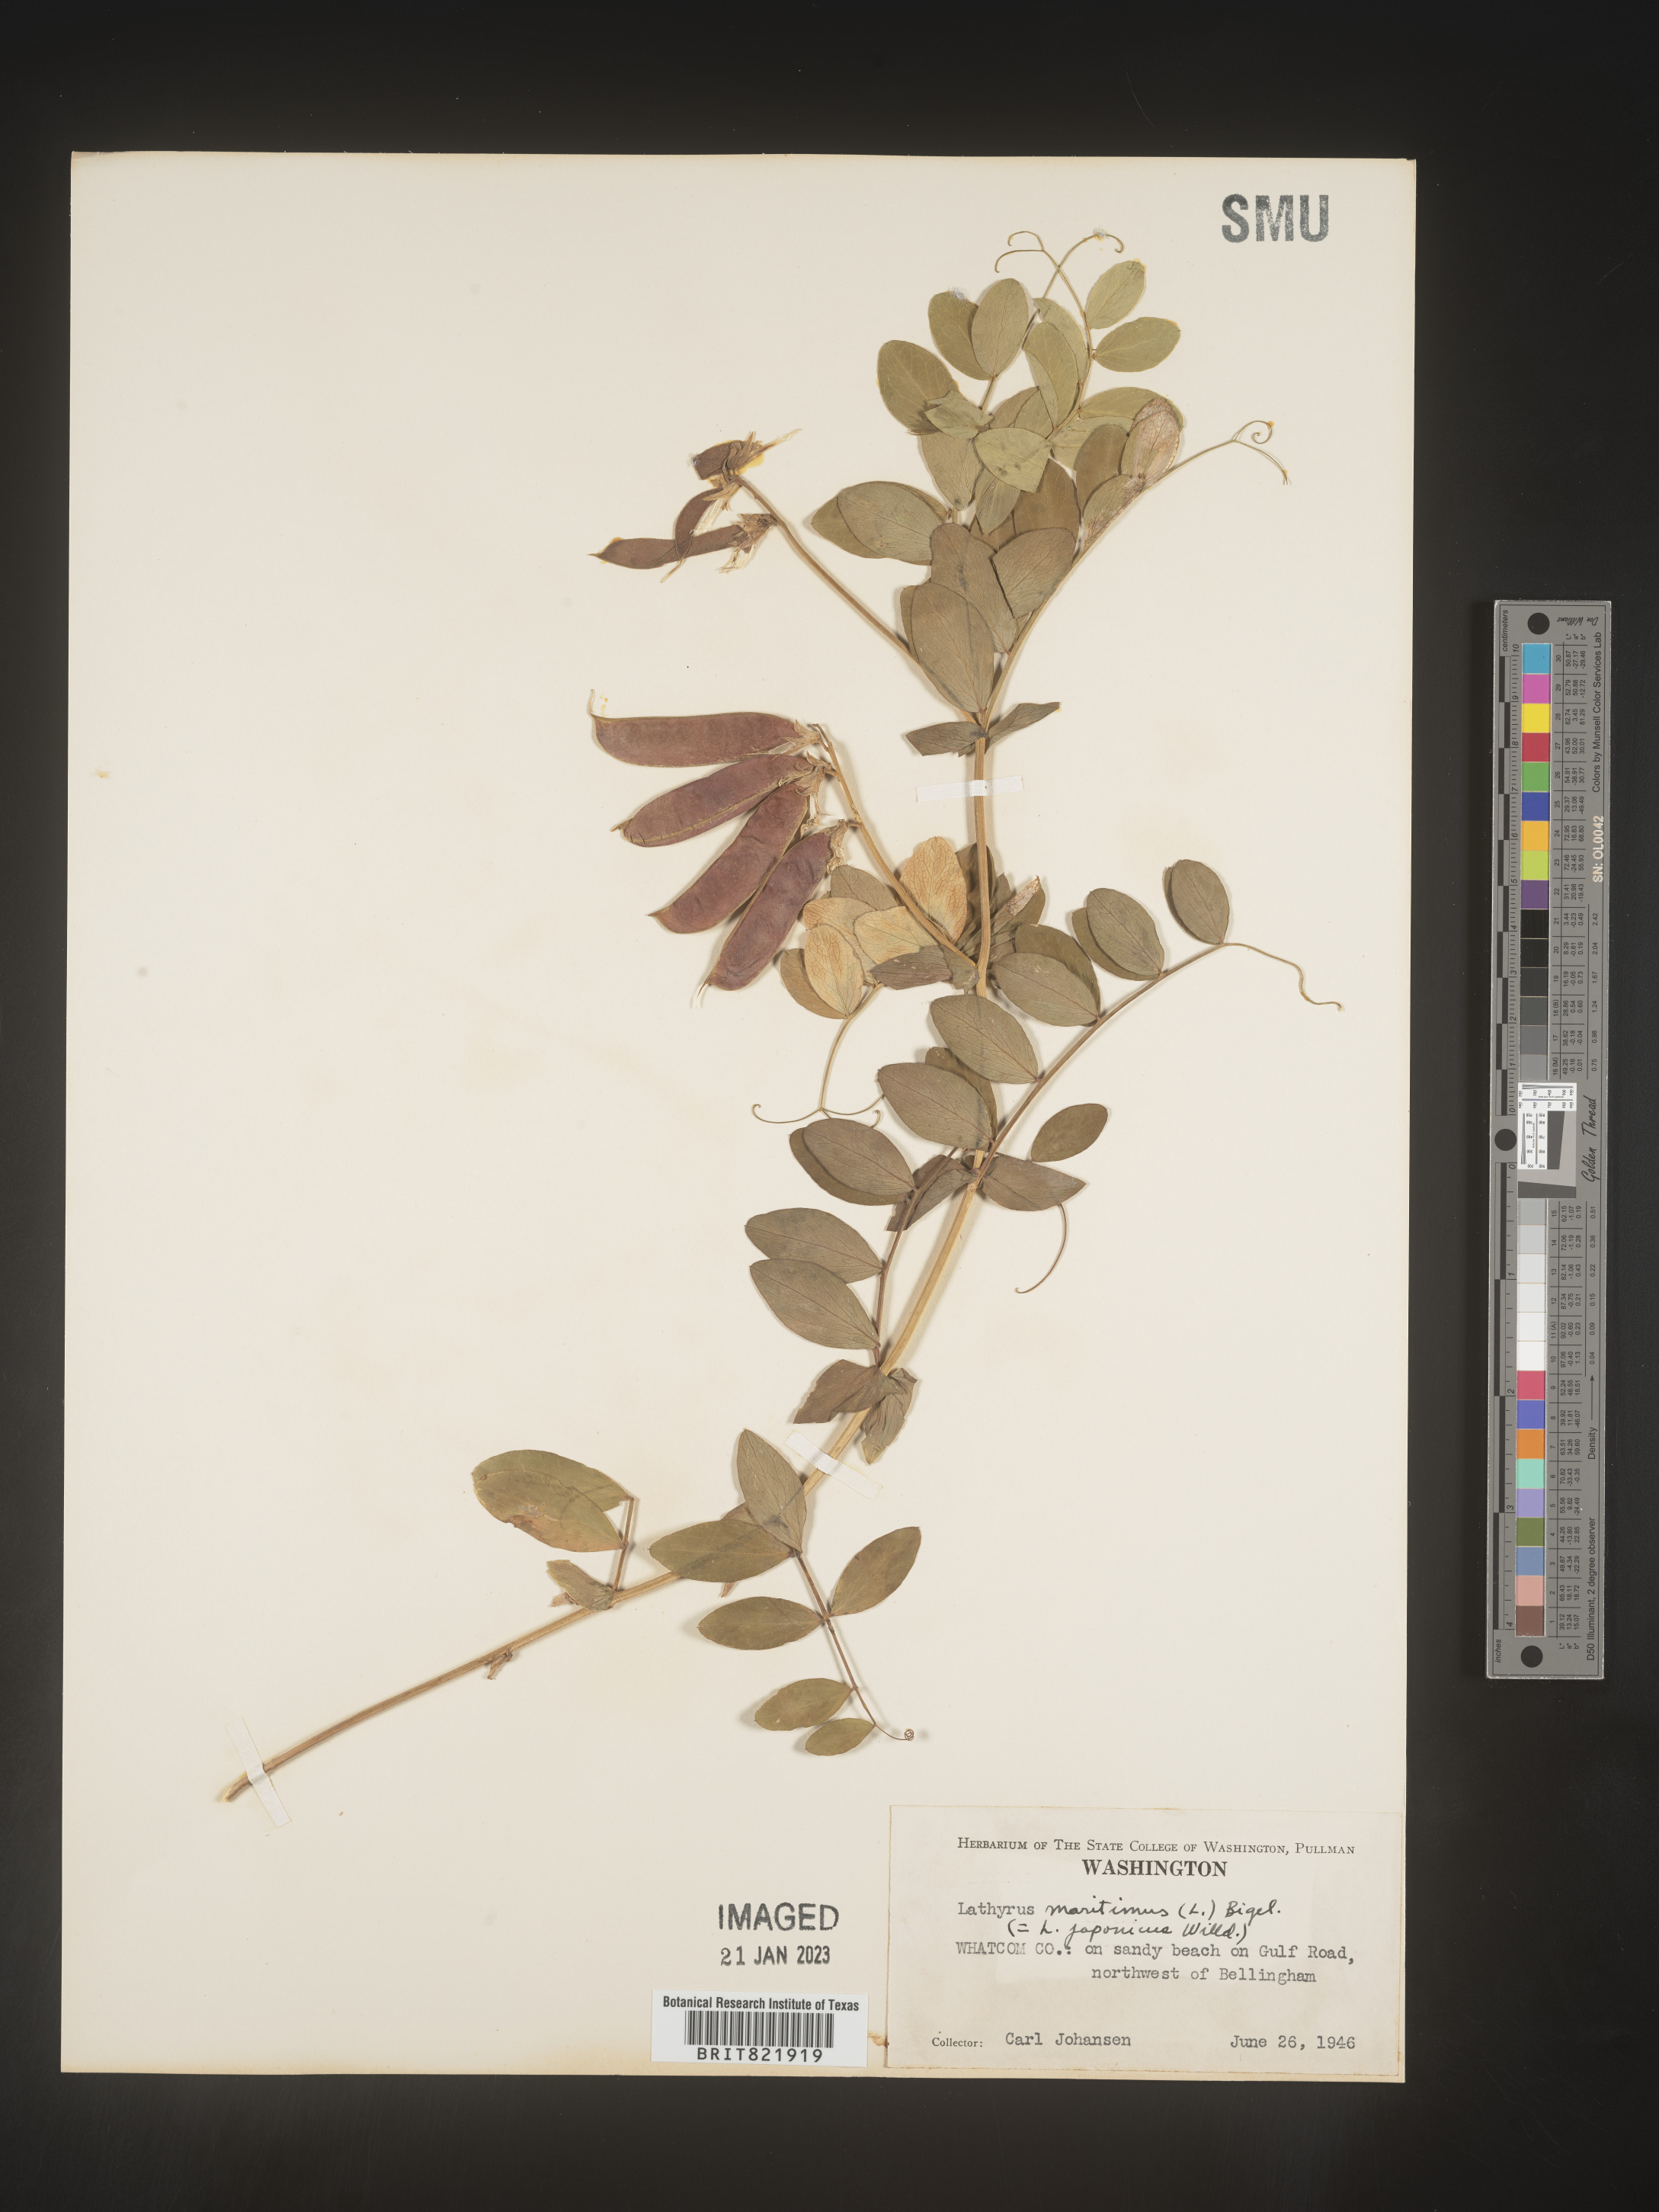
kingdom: Plantae
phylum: Tracheophyta
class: Magnoliopsida
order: Fabales
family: Fabaceae
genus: Lathyrus
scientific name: Lathyrus
